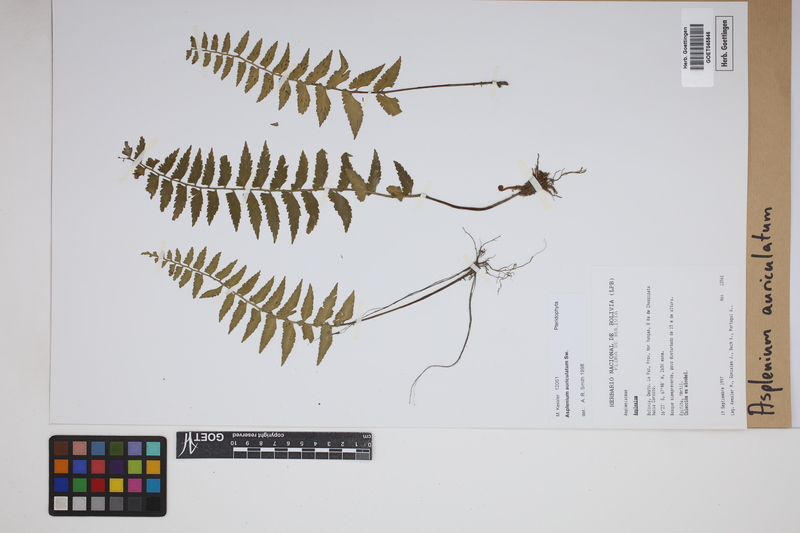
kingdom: Plantae
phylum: Tracheophyta
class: Polypodiopsida
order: Polypodiales
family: Aspleniaceae
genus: Asplenium
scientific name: Asplenium auriculatum
